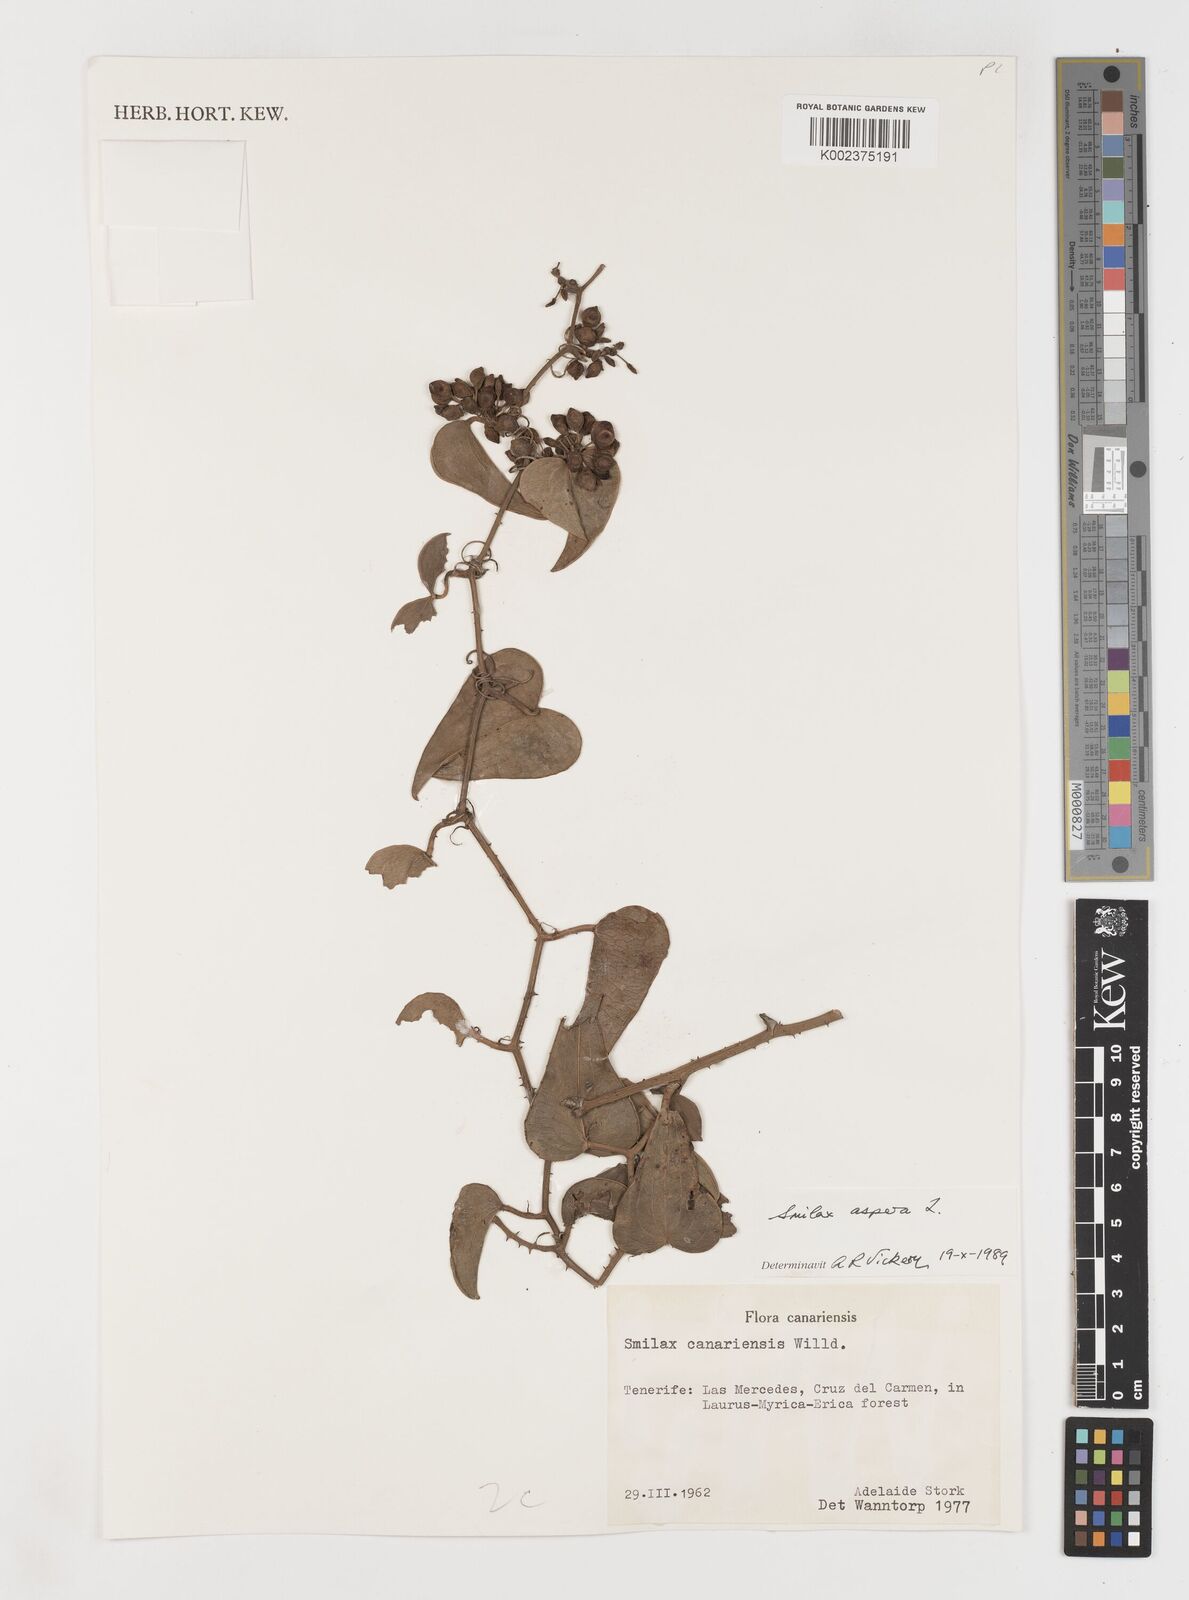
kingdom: Plantae
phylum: Tracheophyta
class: Liliopsida
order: Liliales
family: Smilacaceae
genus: Smilax
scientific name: Smilax aspera
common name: Common smilax
